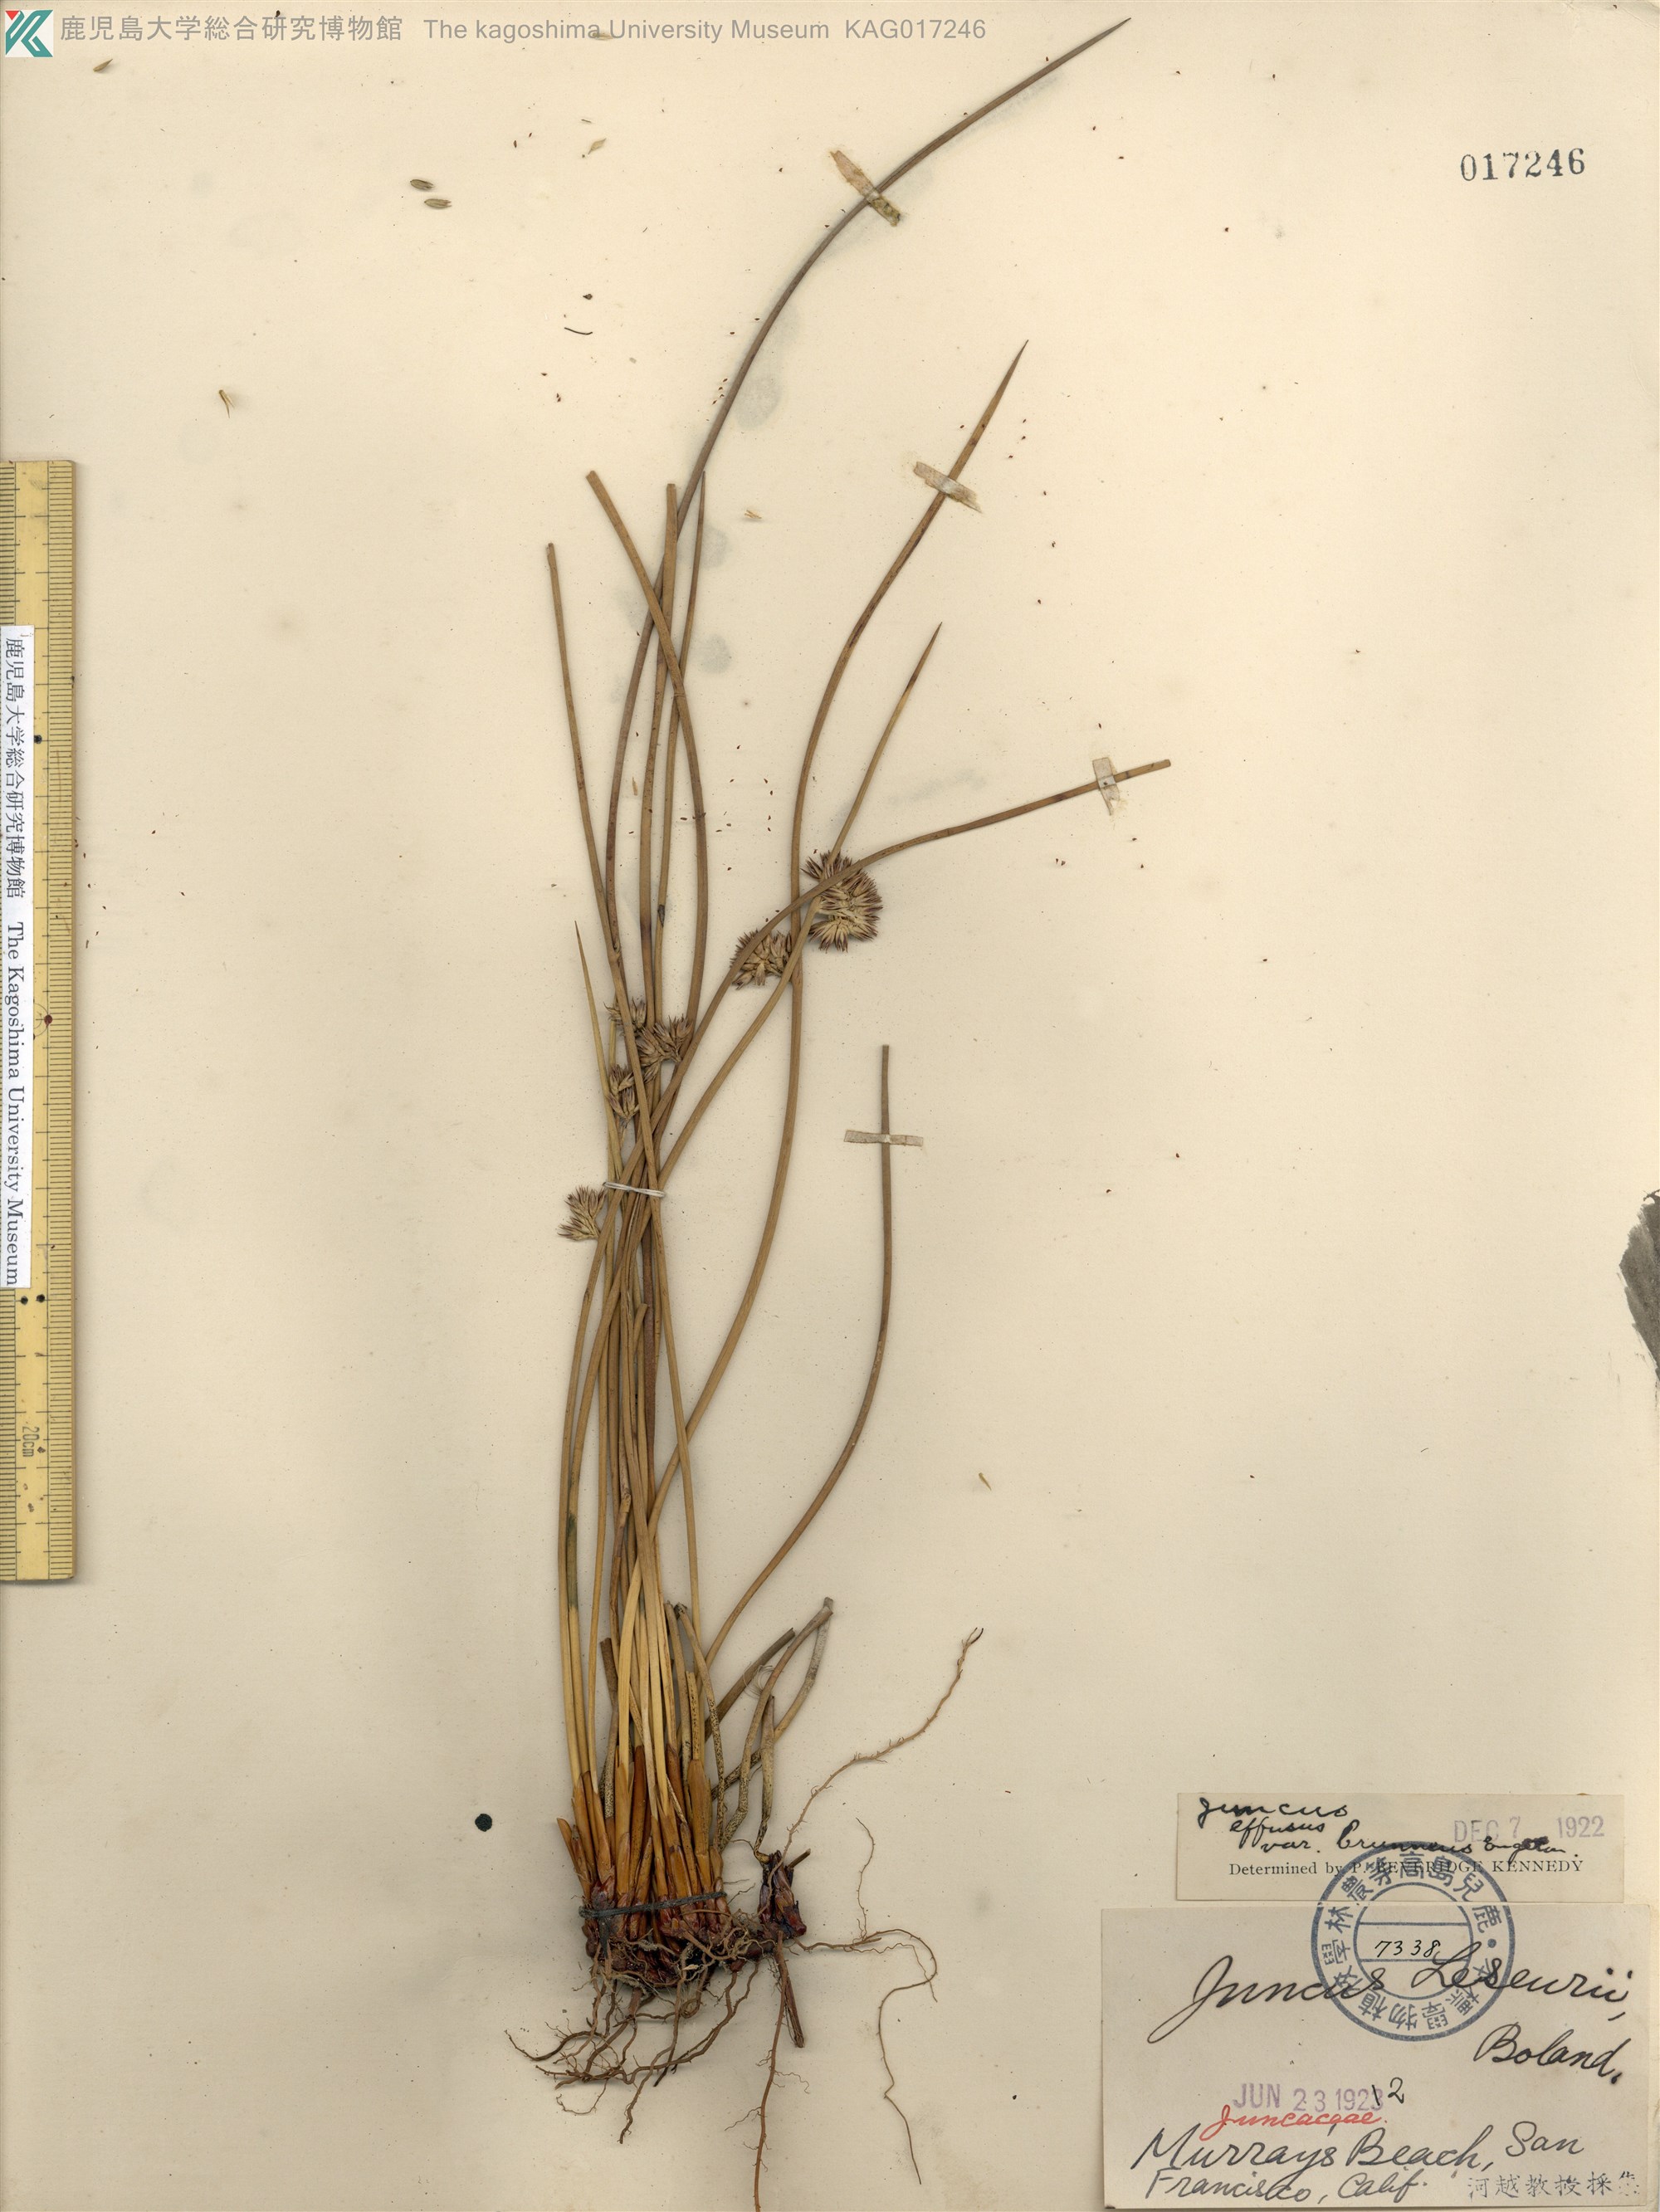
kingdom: Plantae
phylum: Tracheophyta
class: Liliopsida
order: Poales
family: Juncaceae
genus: Juncus
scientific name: Juncus leseurii
